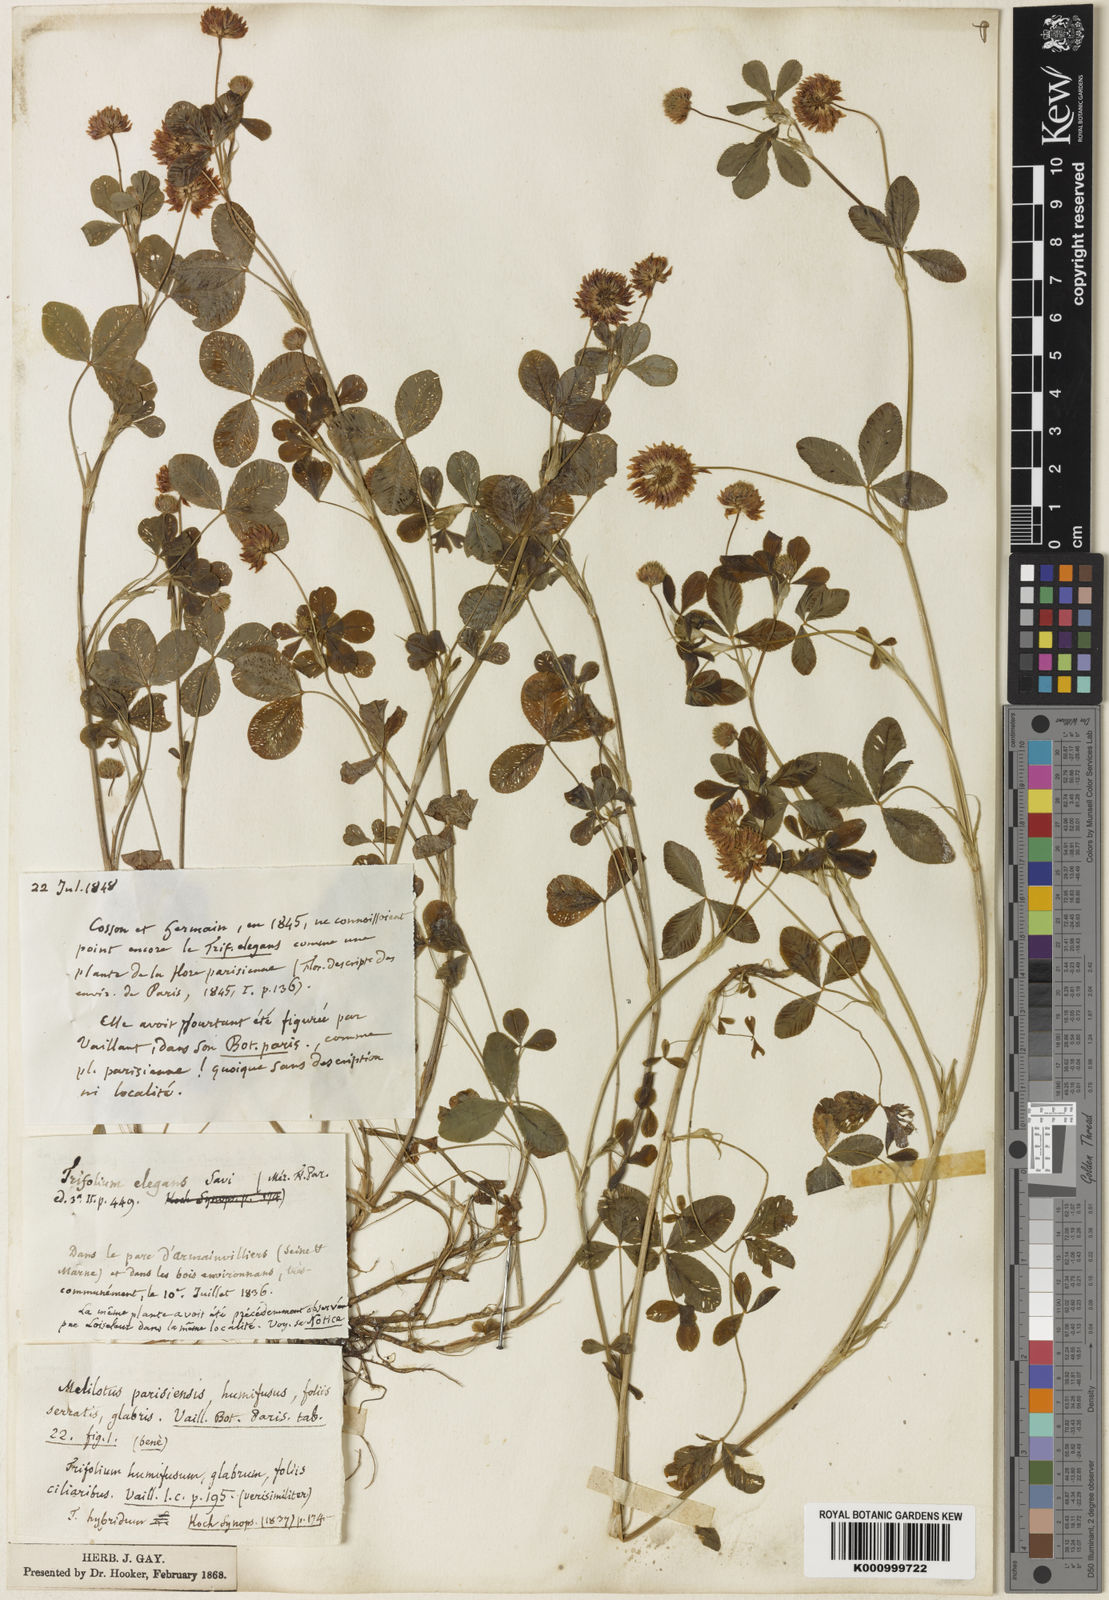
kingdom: Plantae
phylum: Tracheophyta
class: Magnoliopsida
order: Fabales
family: Fabaceae
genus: Trifolium
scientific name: Trifolium hybridum
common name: Alsike clover
